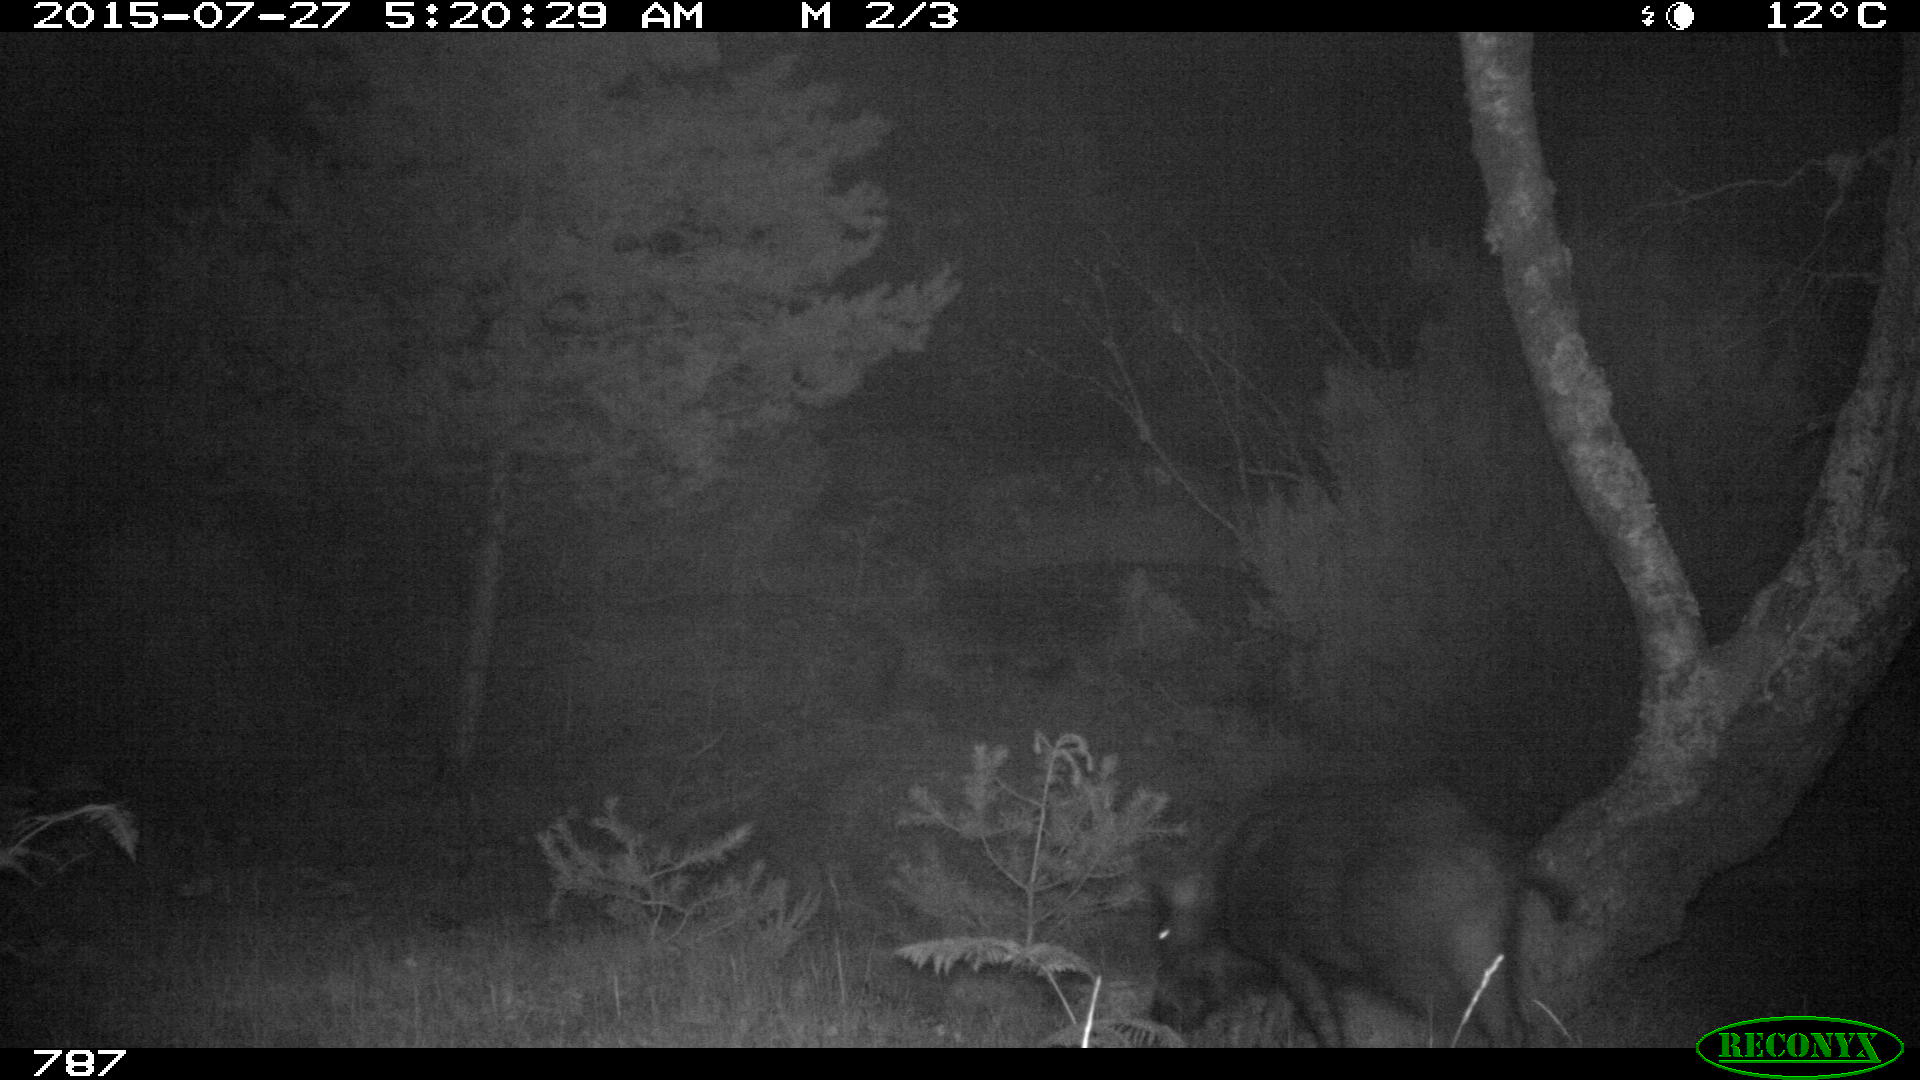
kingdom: Animalia
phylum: Chordata
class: Mammalia
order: Artiodactyla
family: Suidae
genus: Sus
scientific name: Sus scrofa
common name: Wild boar
